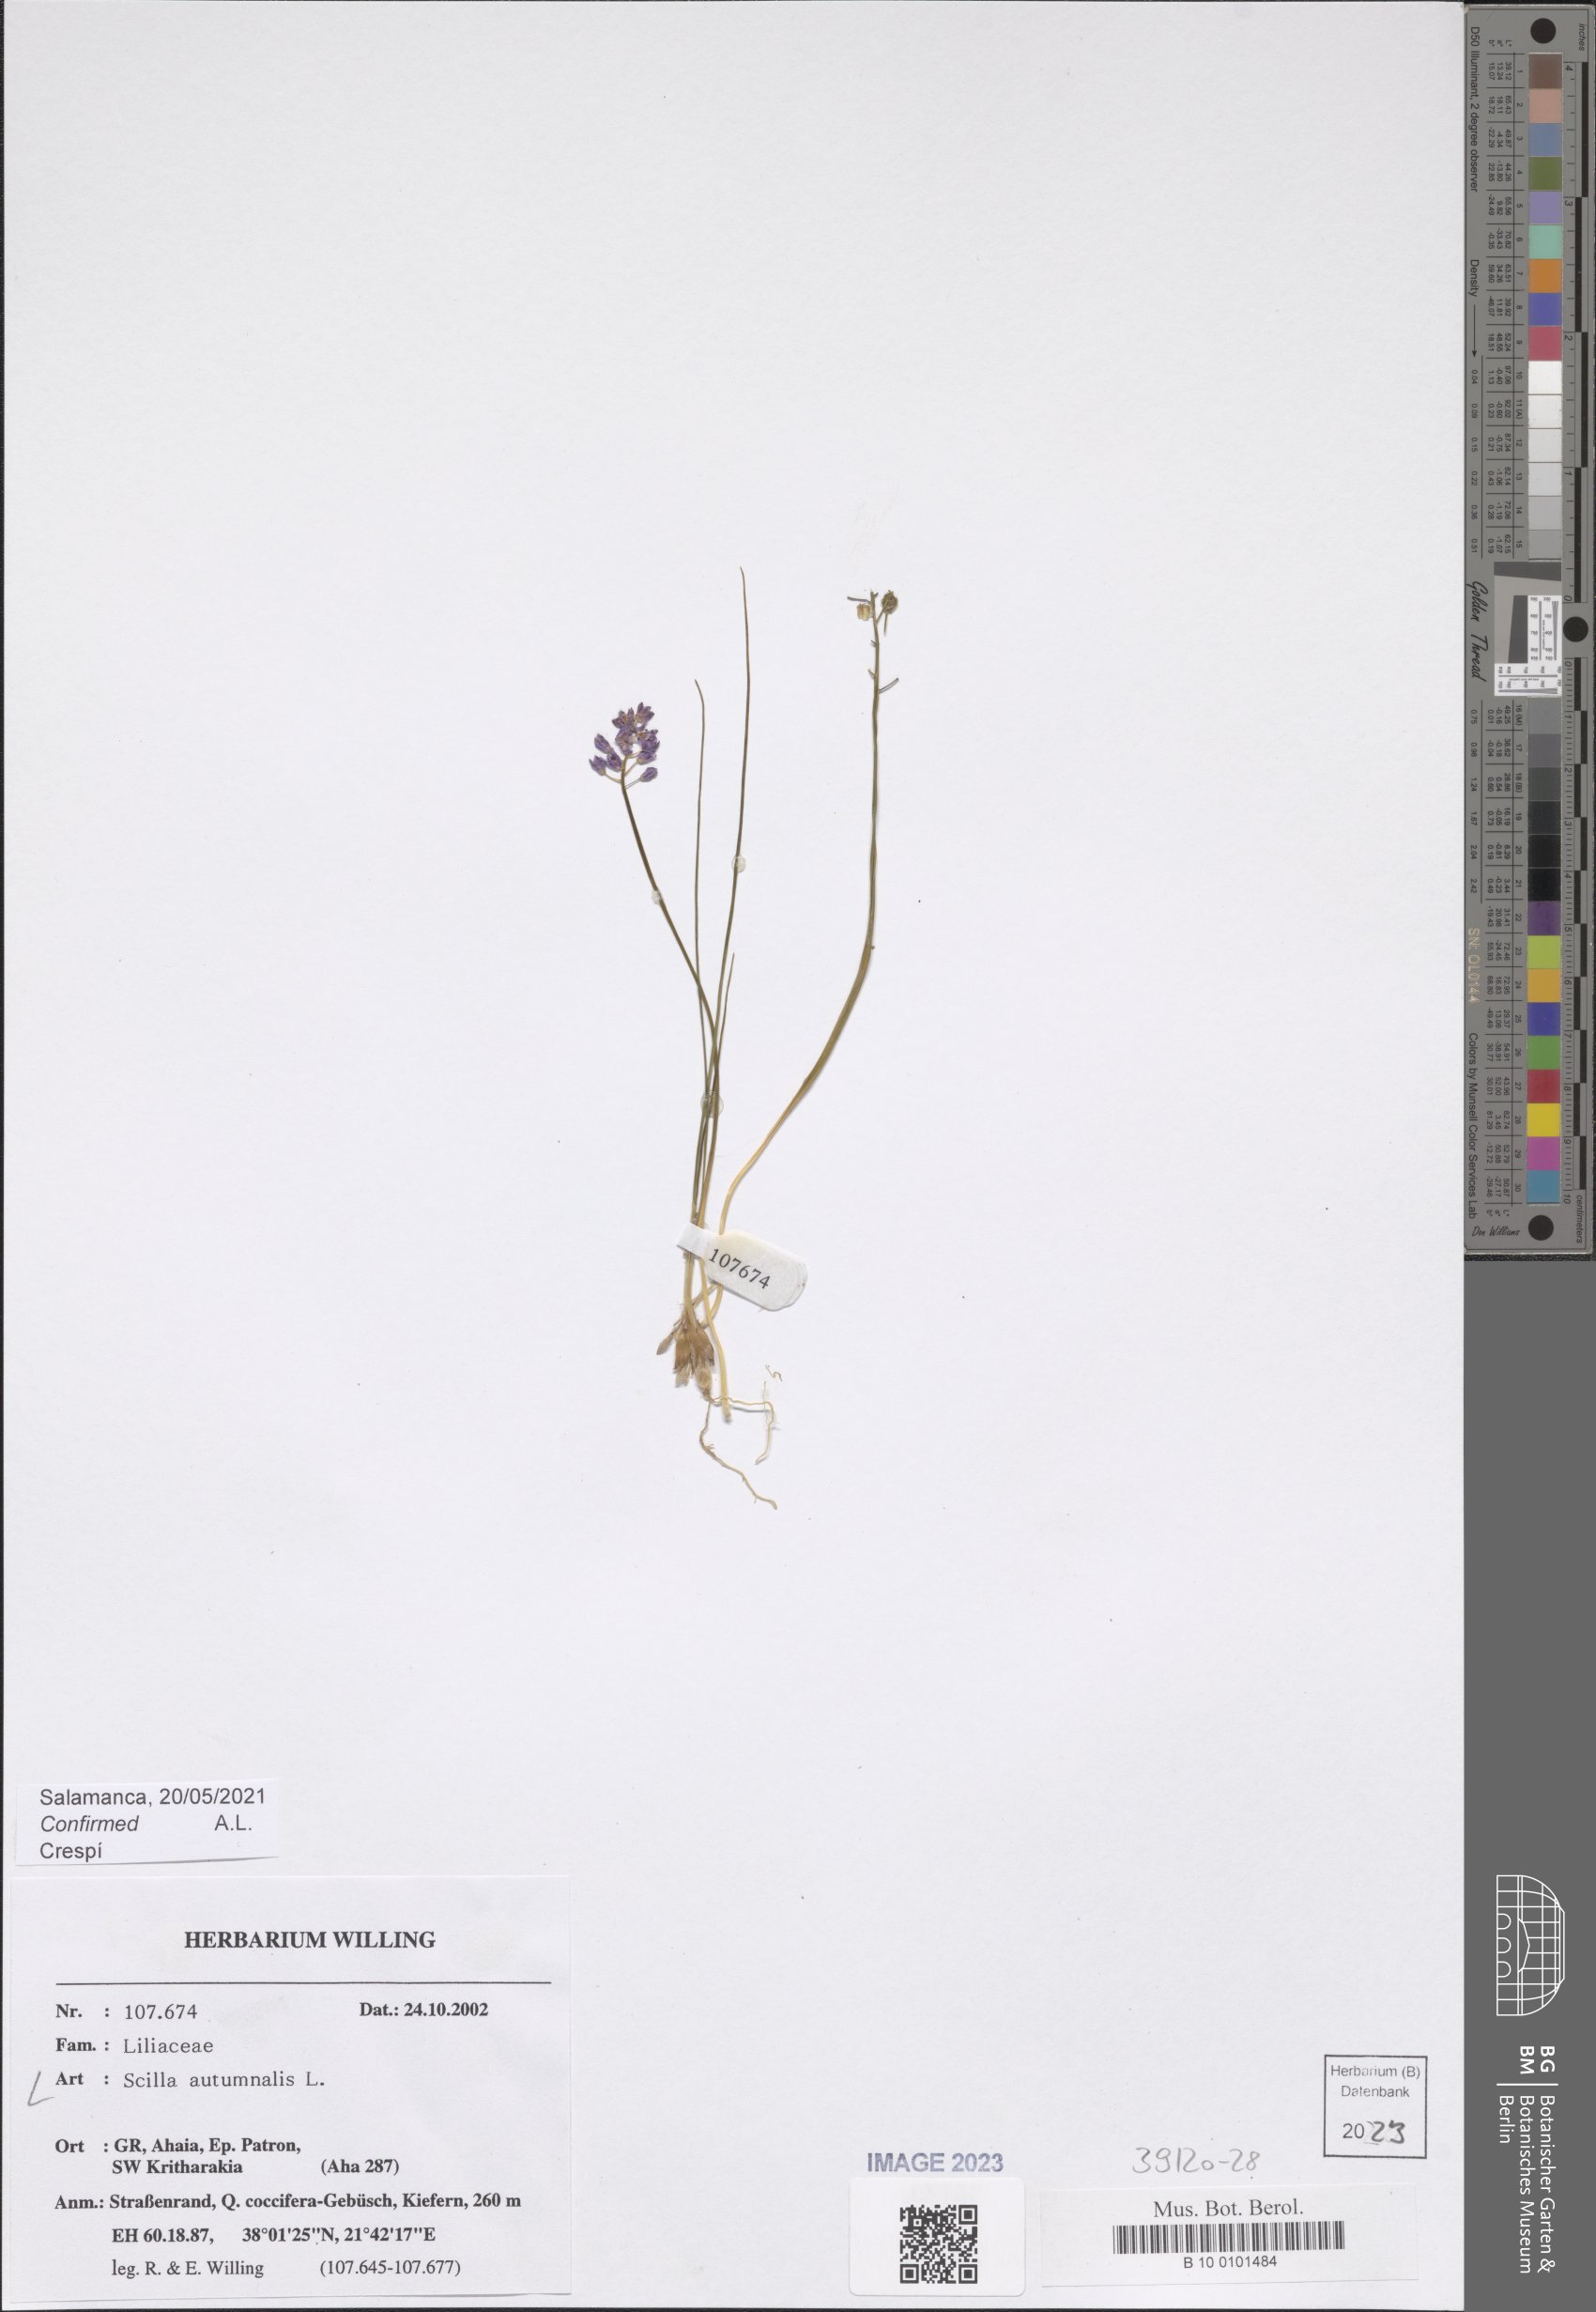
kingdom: Plantae
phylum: Tracheophyta
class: Liliopsida
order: Asparagales
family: Asparagaceae
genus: Prospero
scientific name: Prospero autumnale
